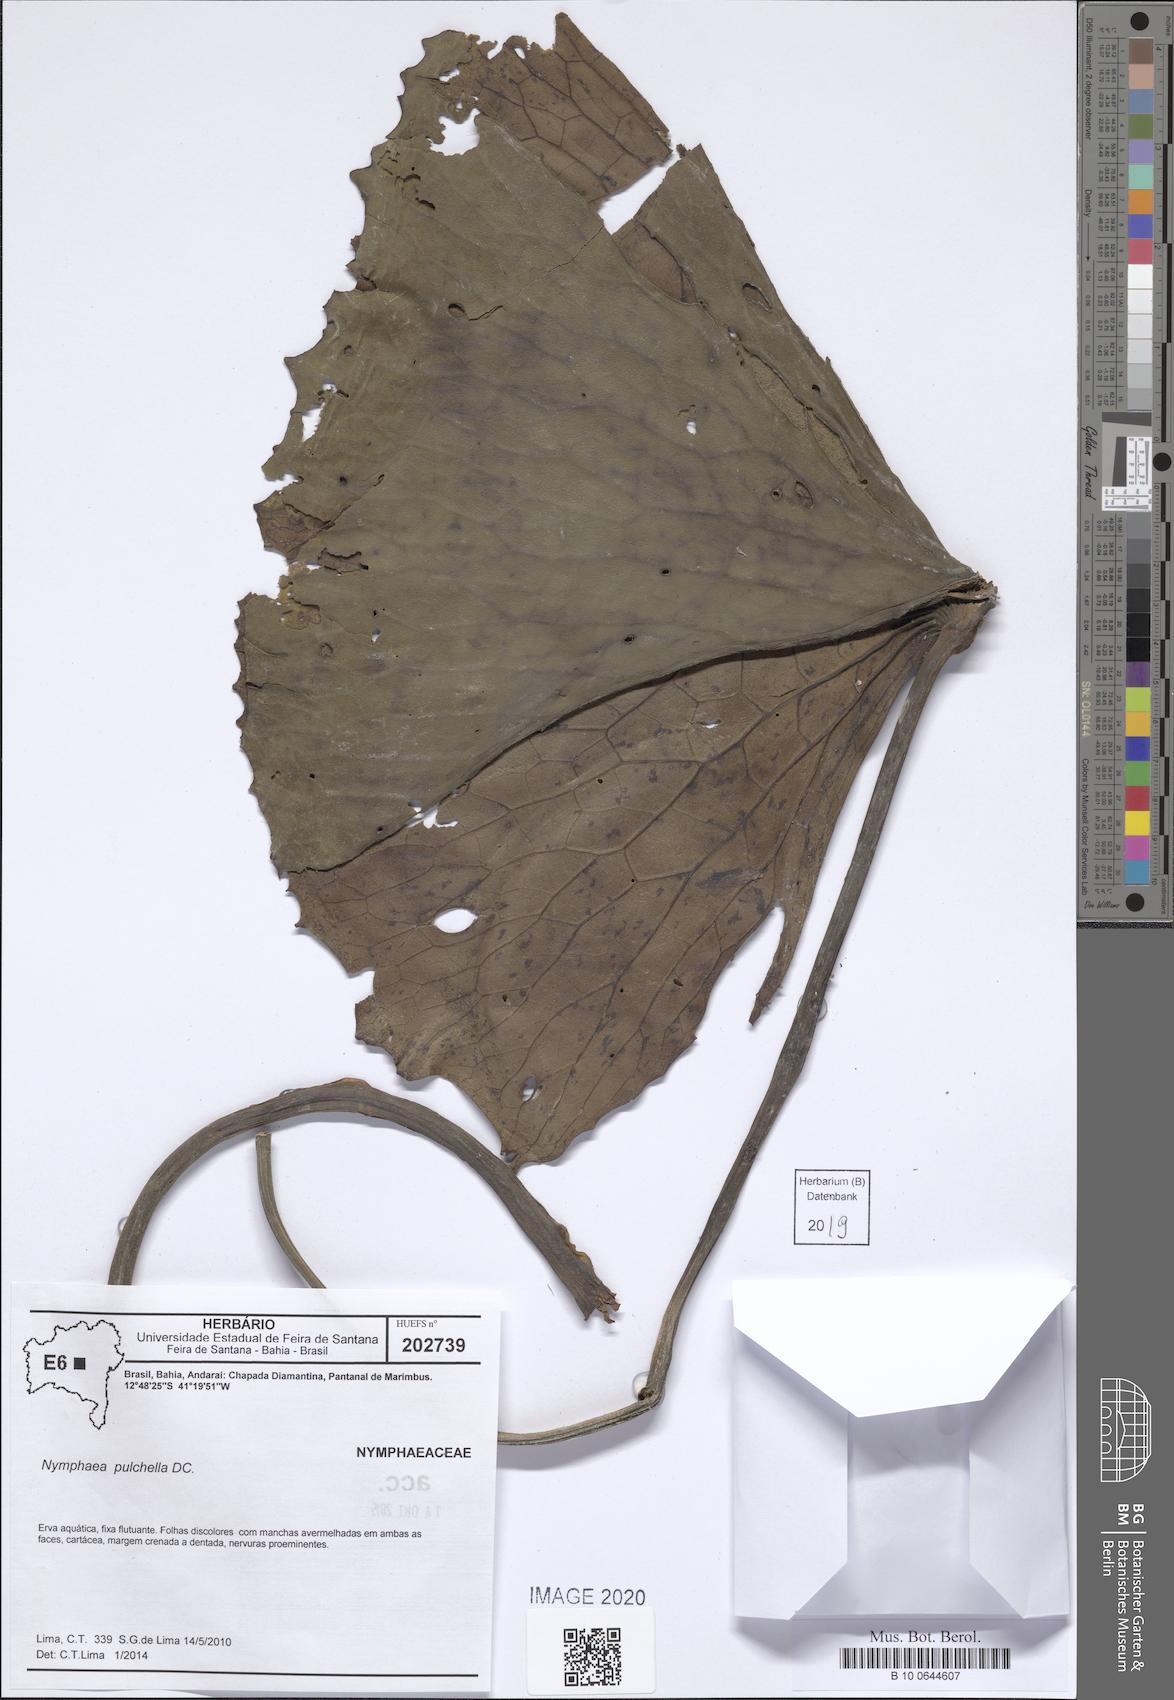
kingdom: Plantae
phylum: Tracheophyta
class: Magnoliopsida
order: Nymphaeales
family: Nymphaeaceae
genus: Nymphaea
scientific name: Nymphaea pulchella
